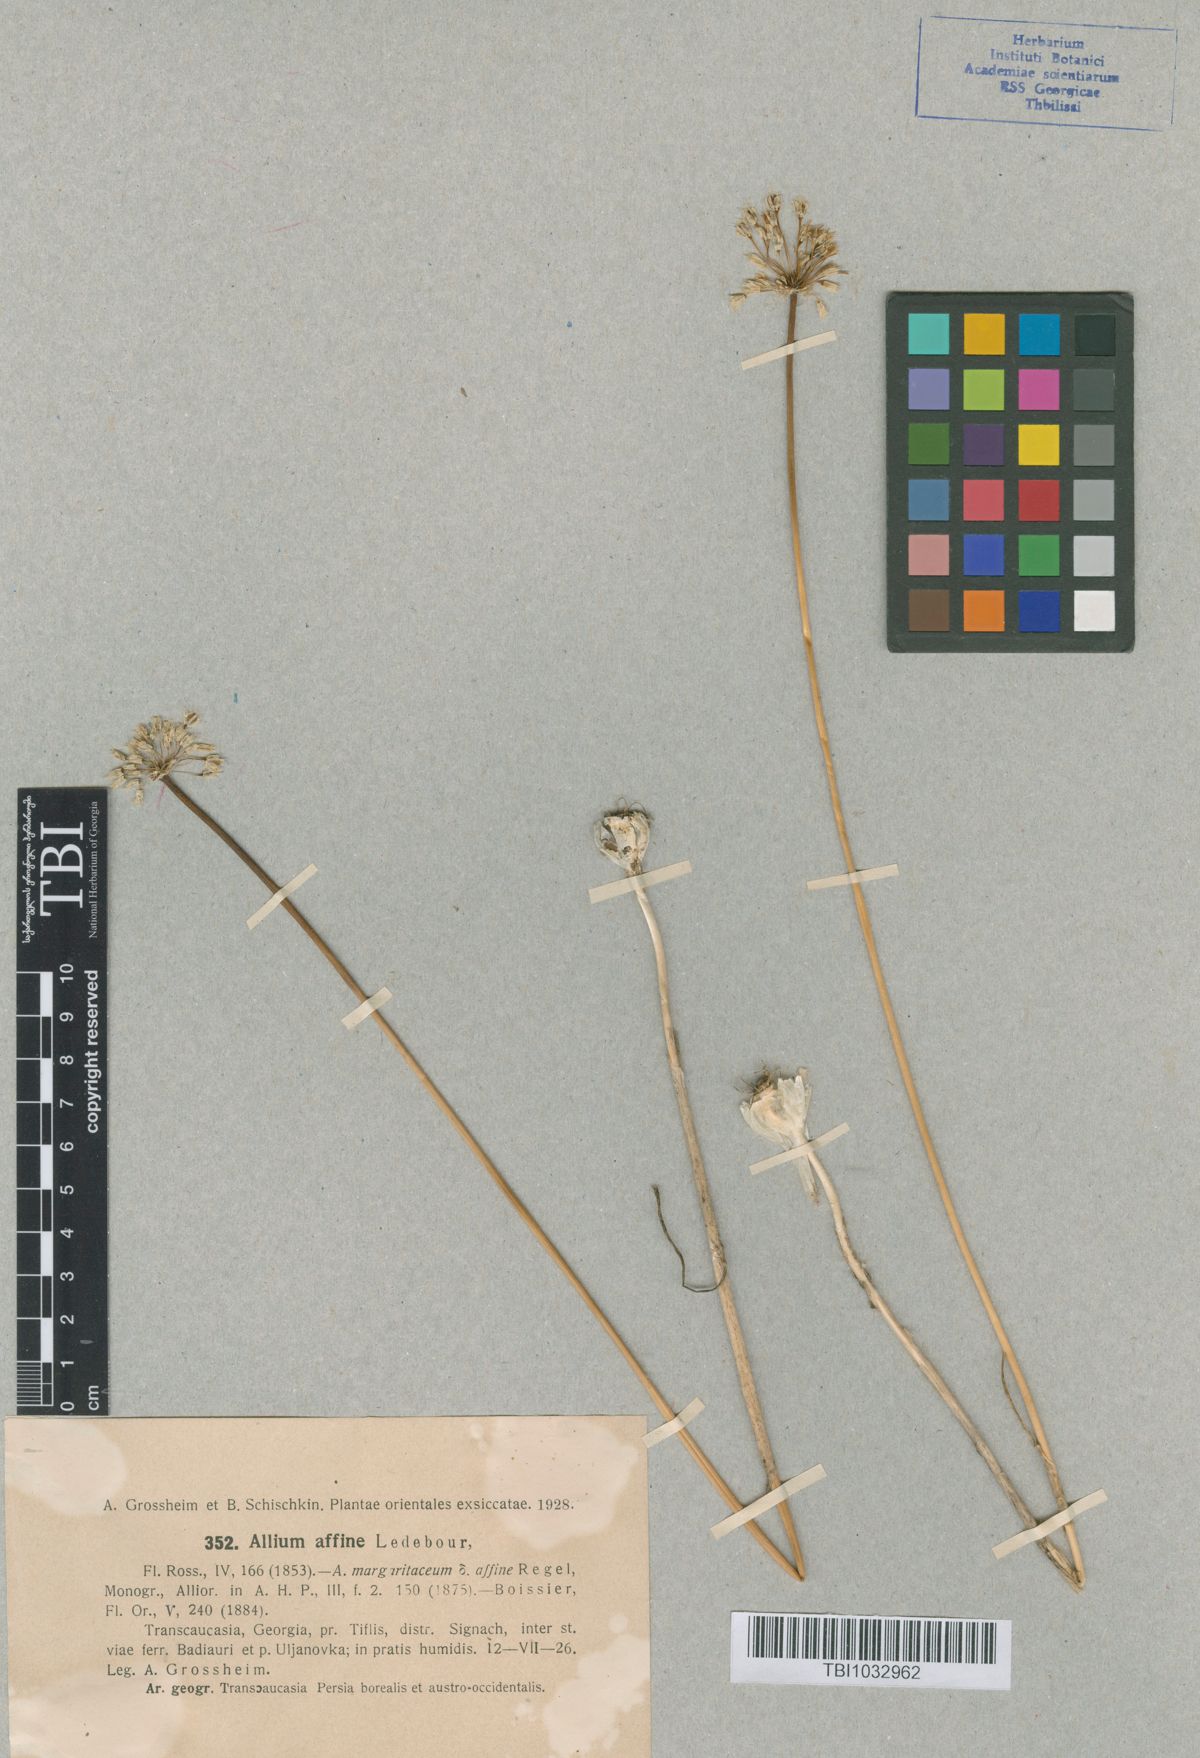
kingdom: Plantae
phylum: Tracheophyta
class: Liliopsida
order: Asparagales
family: Amaryllidaceae
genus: Allium
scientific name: Allium affine
